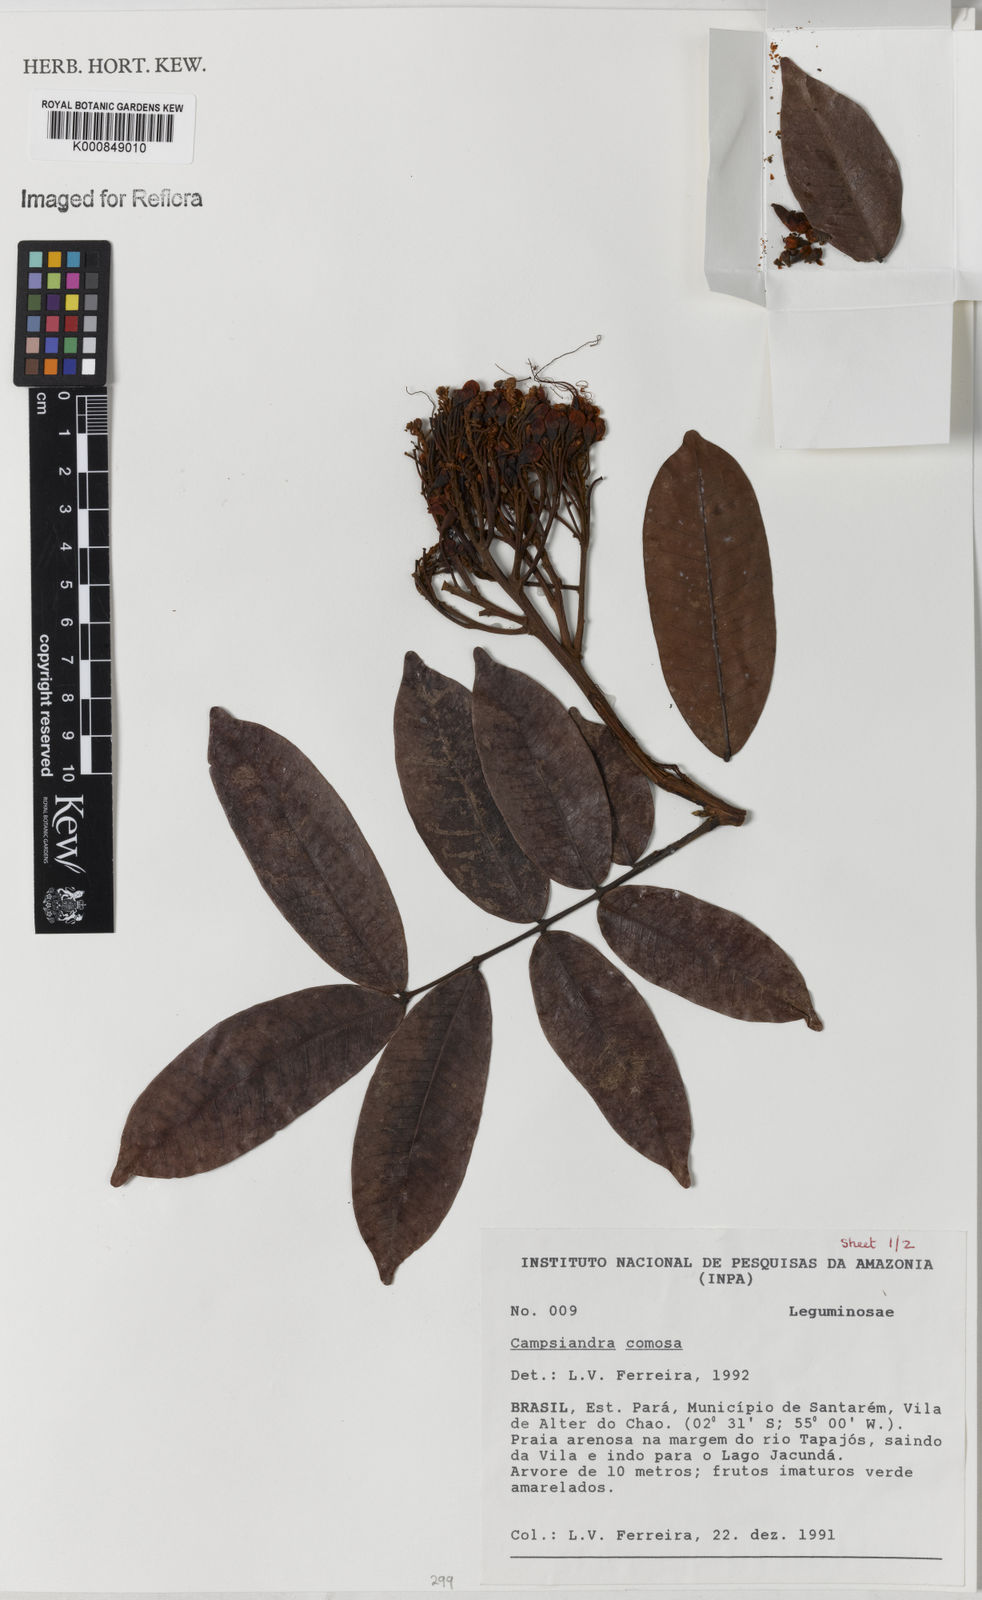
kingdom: Plantae
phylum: Tracheophyta
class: Magnoliopsida
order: Fabales
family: Fabaceae
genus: Campsiandra
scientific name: Campsiandra laurifolia
